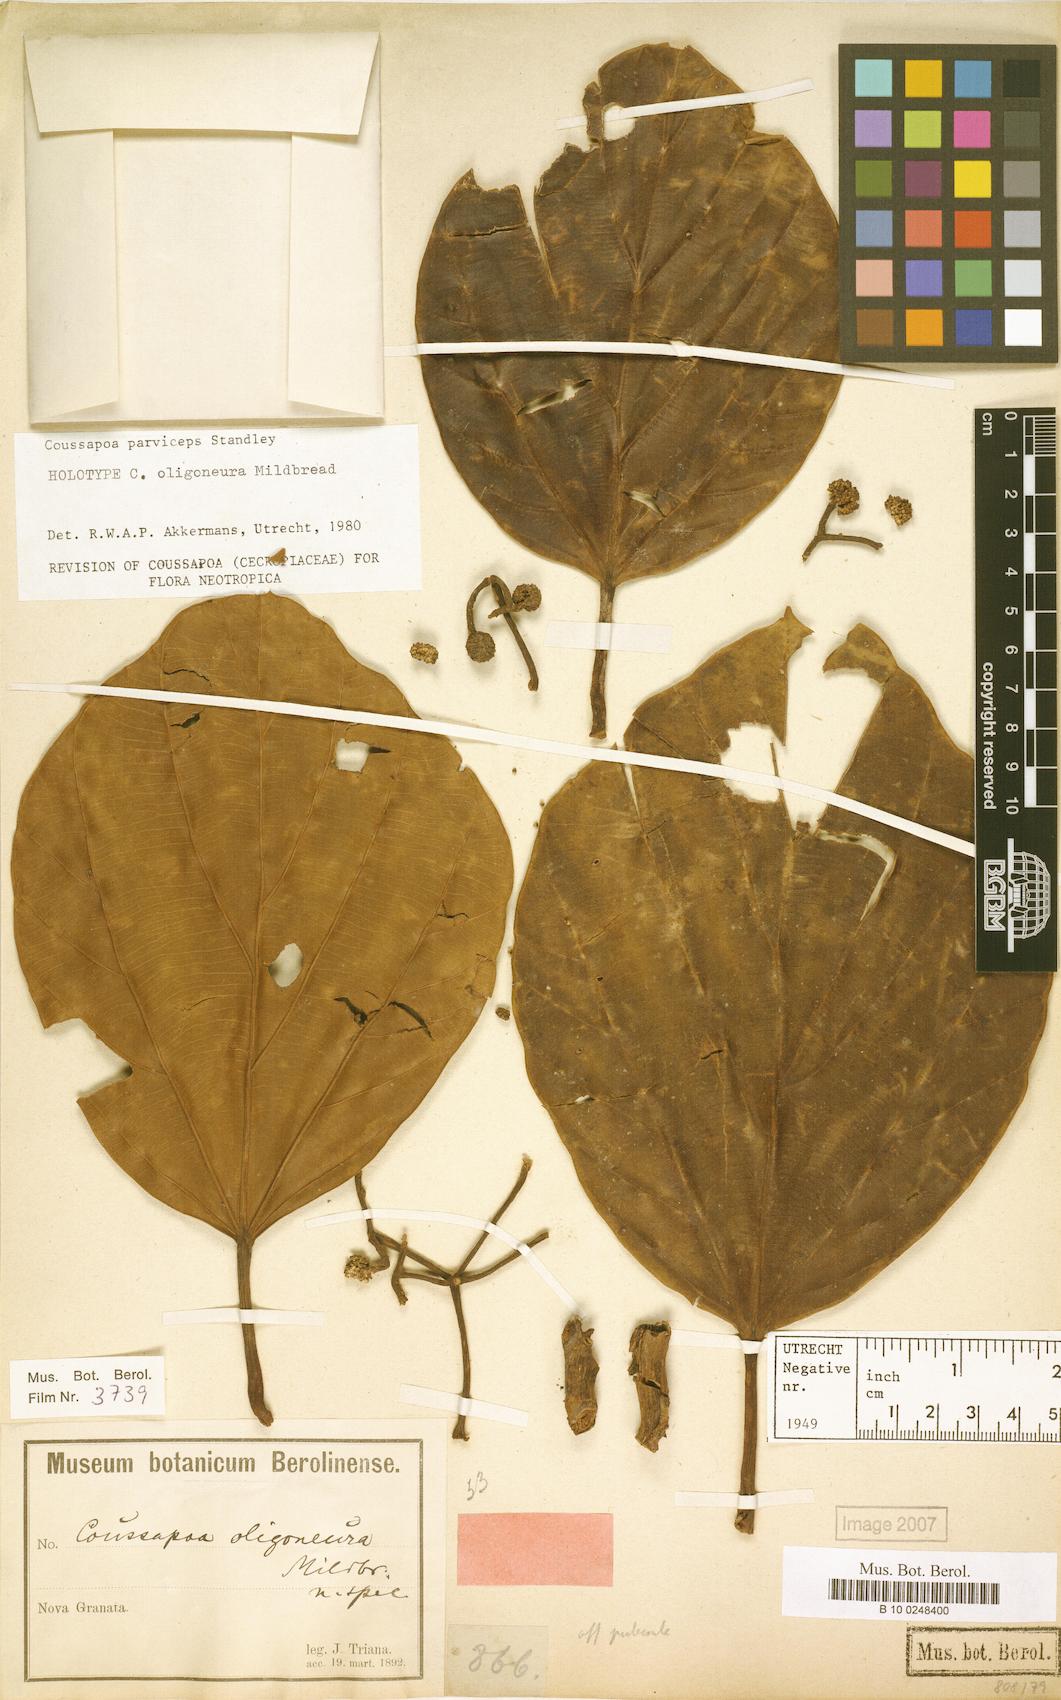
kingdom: Plantae
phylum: Tracheophyta
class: Magnoliopsida
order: Rosales
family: Urticaceae
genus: Coussapoa
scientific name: Coussapoa parviceps
